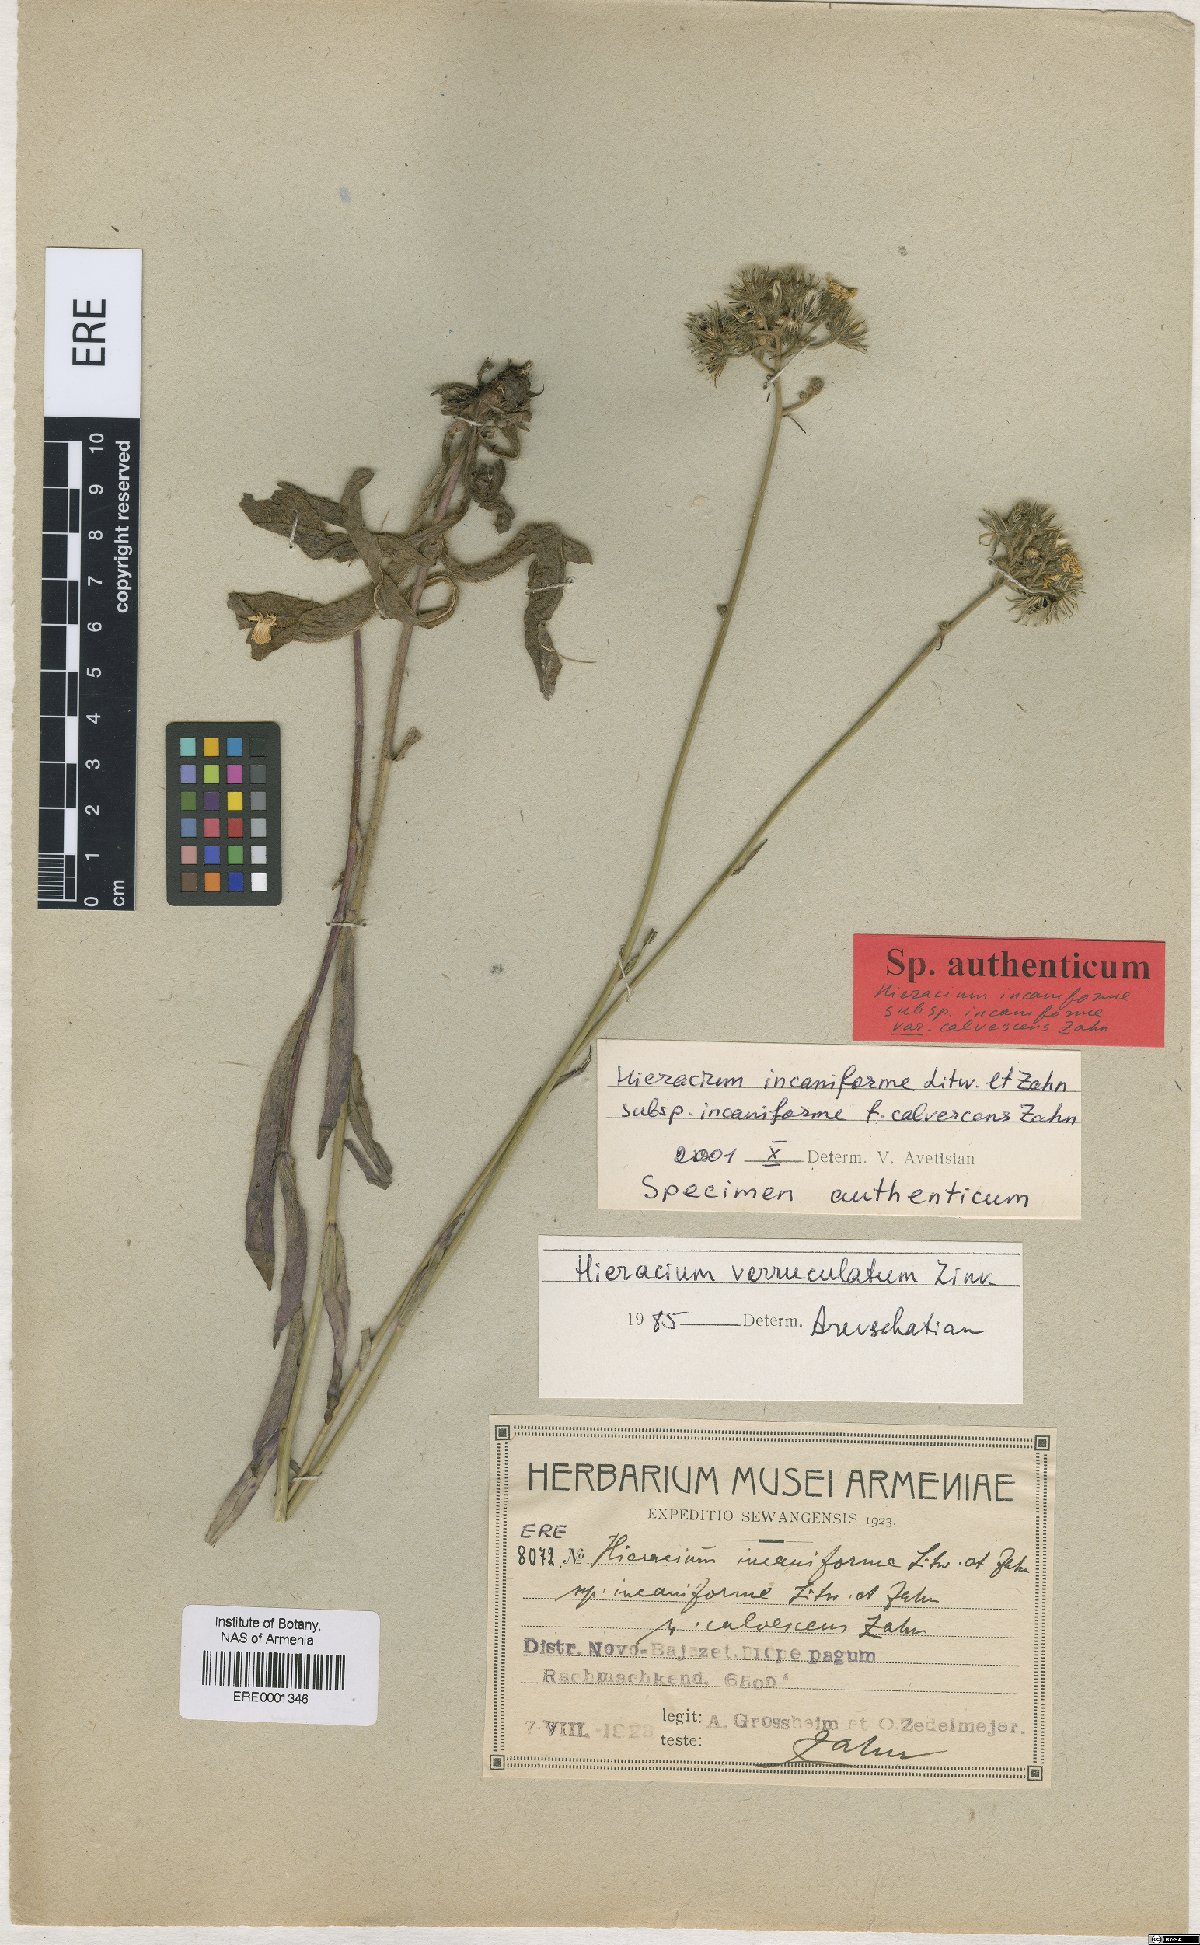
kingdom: Plantae
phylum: Tracheophyta
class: Magnoliopsida
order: Asterales
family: Asteraceae
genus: Pilosella
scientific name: Pilosella sintenisii
